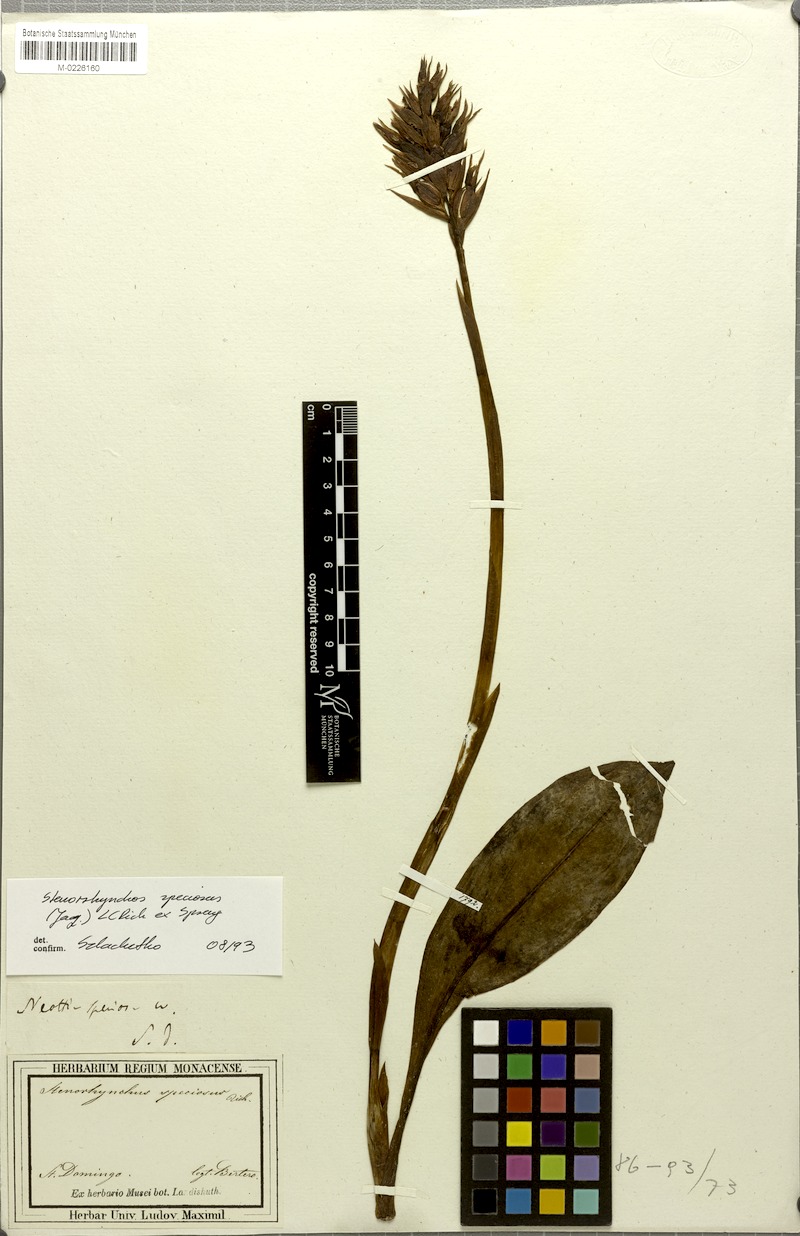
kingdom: Plantae
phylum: Tracheophyta
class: Liliopsida
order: Asparagales
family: Orchidaceae
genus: Stenorrhynchos
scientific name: Stenorrhynchos speciosum
